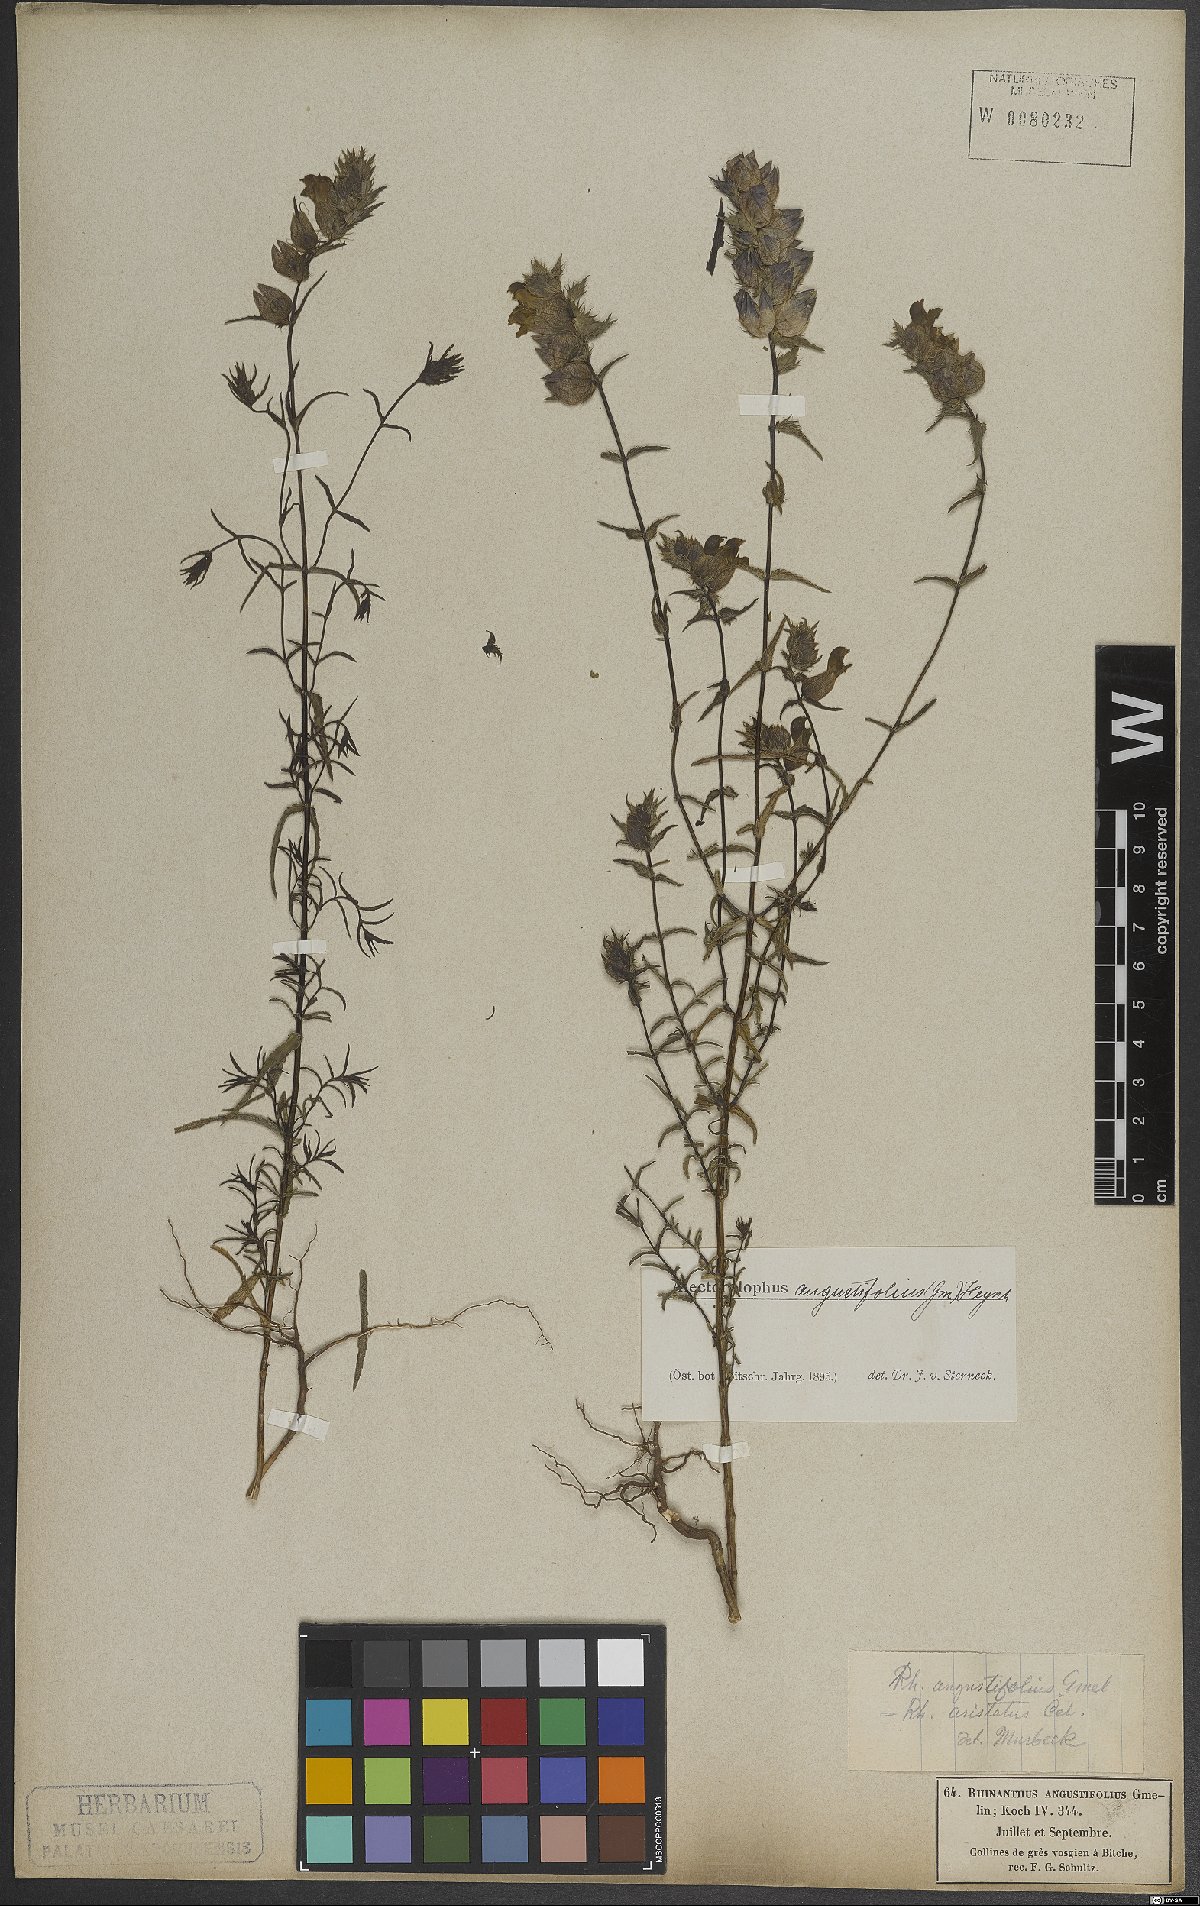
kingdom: Plantae
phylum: Tracheophyta
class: Magnoliopsida
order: Lamiales
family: Orobanchaceae
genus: Rhinanthus
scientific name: Rhinanthus glacialis
